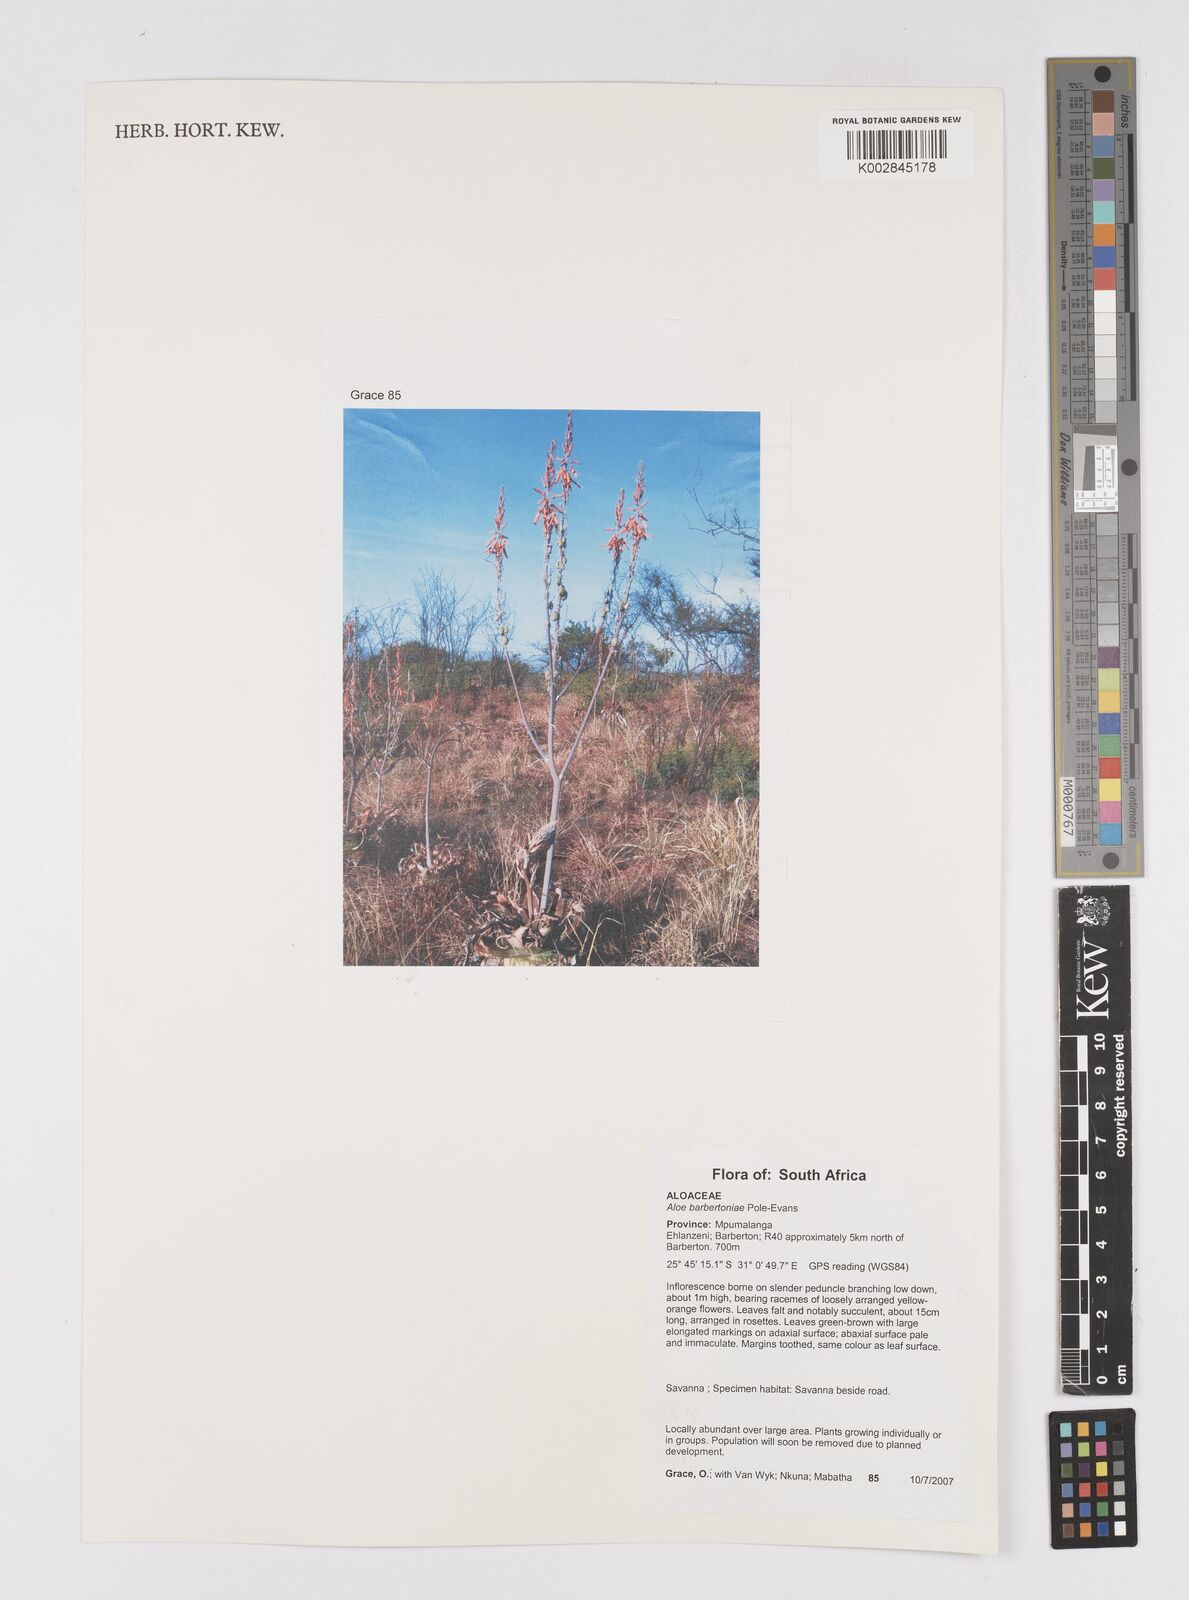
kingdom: Plantae
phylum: Tracheophyta
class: Liliopsida
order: Asparagales
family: Asphodelaceae
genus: Aloe
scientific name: Aloe davyana
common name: Spotted aloe
